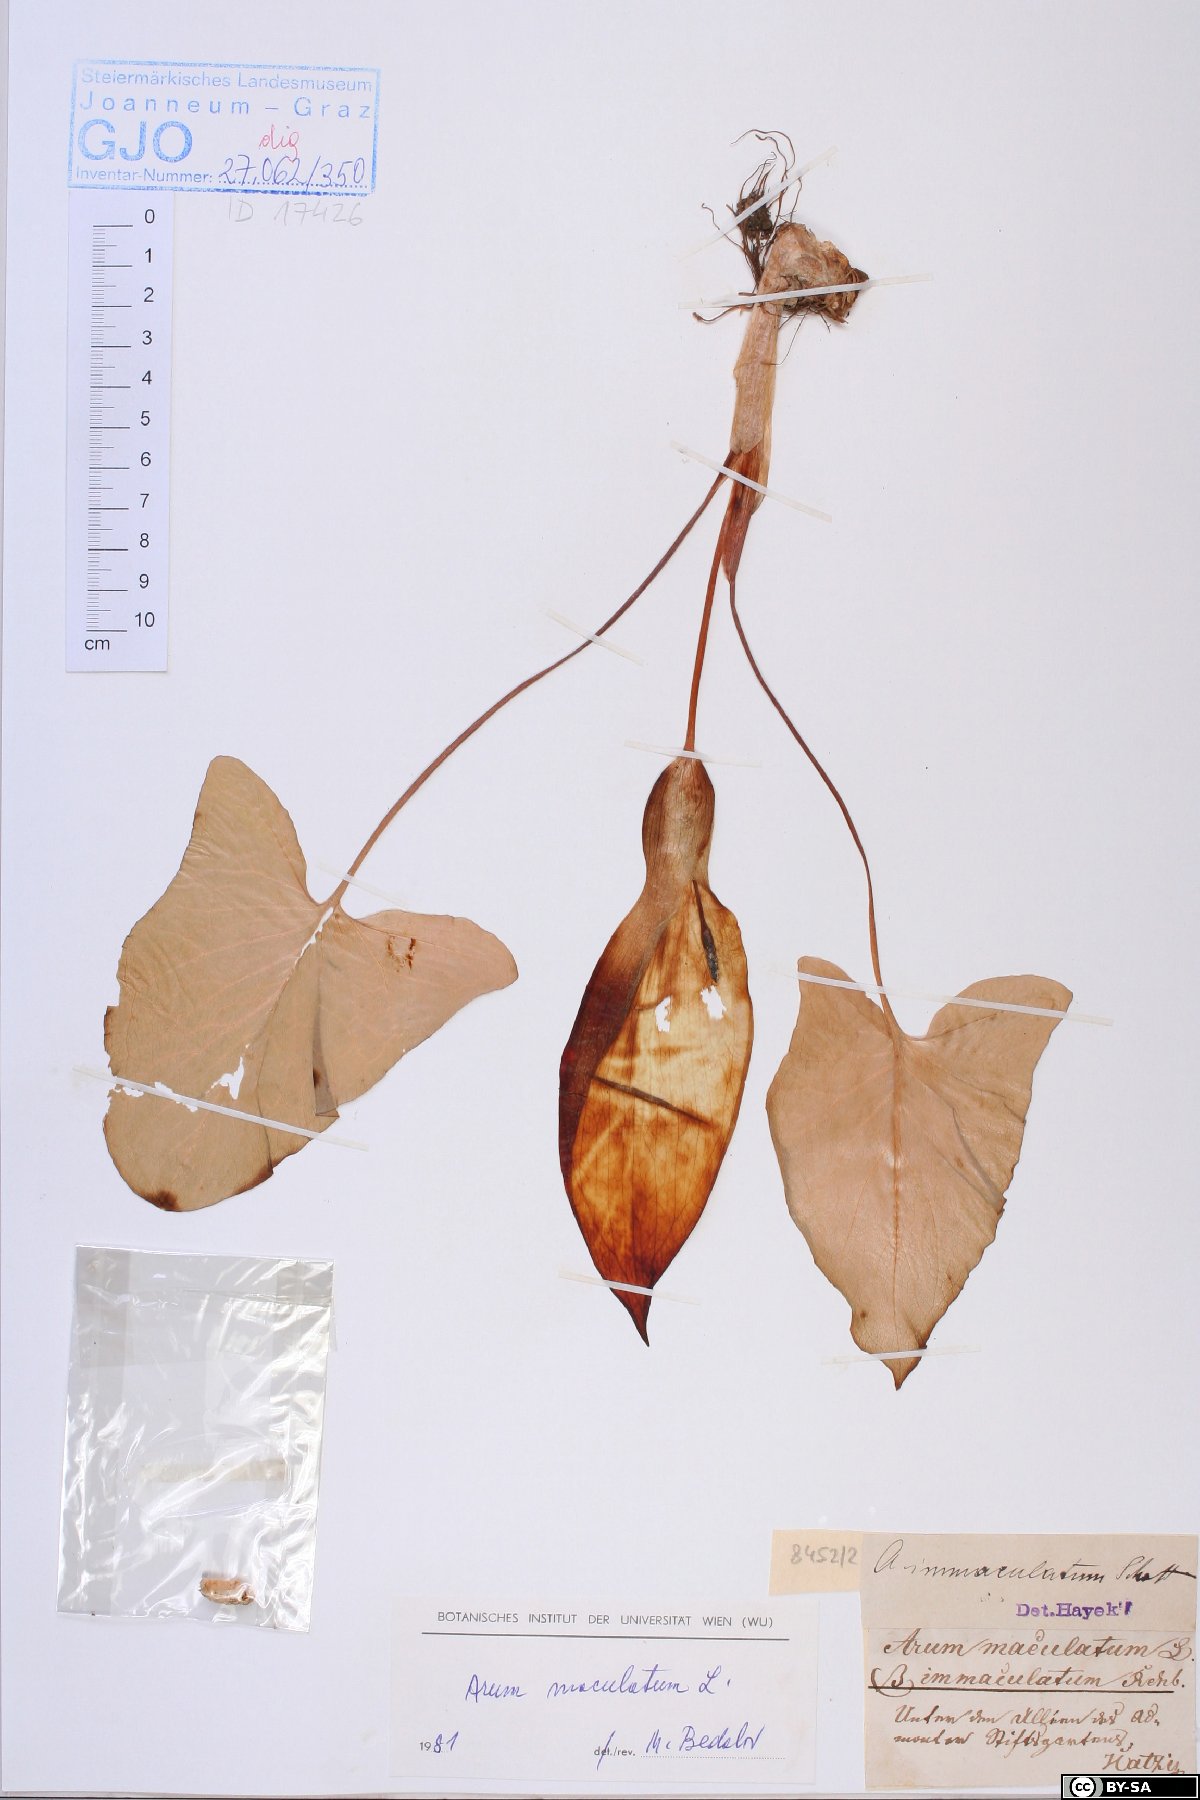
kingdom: Plantae
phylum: Tracheophyta
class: Liliopsida
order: Alismatales
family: Araceae
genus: Arum
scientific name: Arum maculatum
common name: Lords-and-ladies
